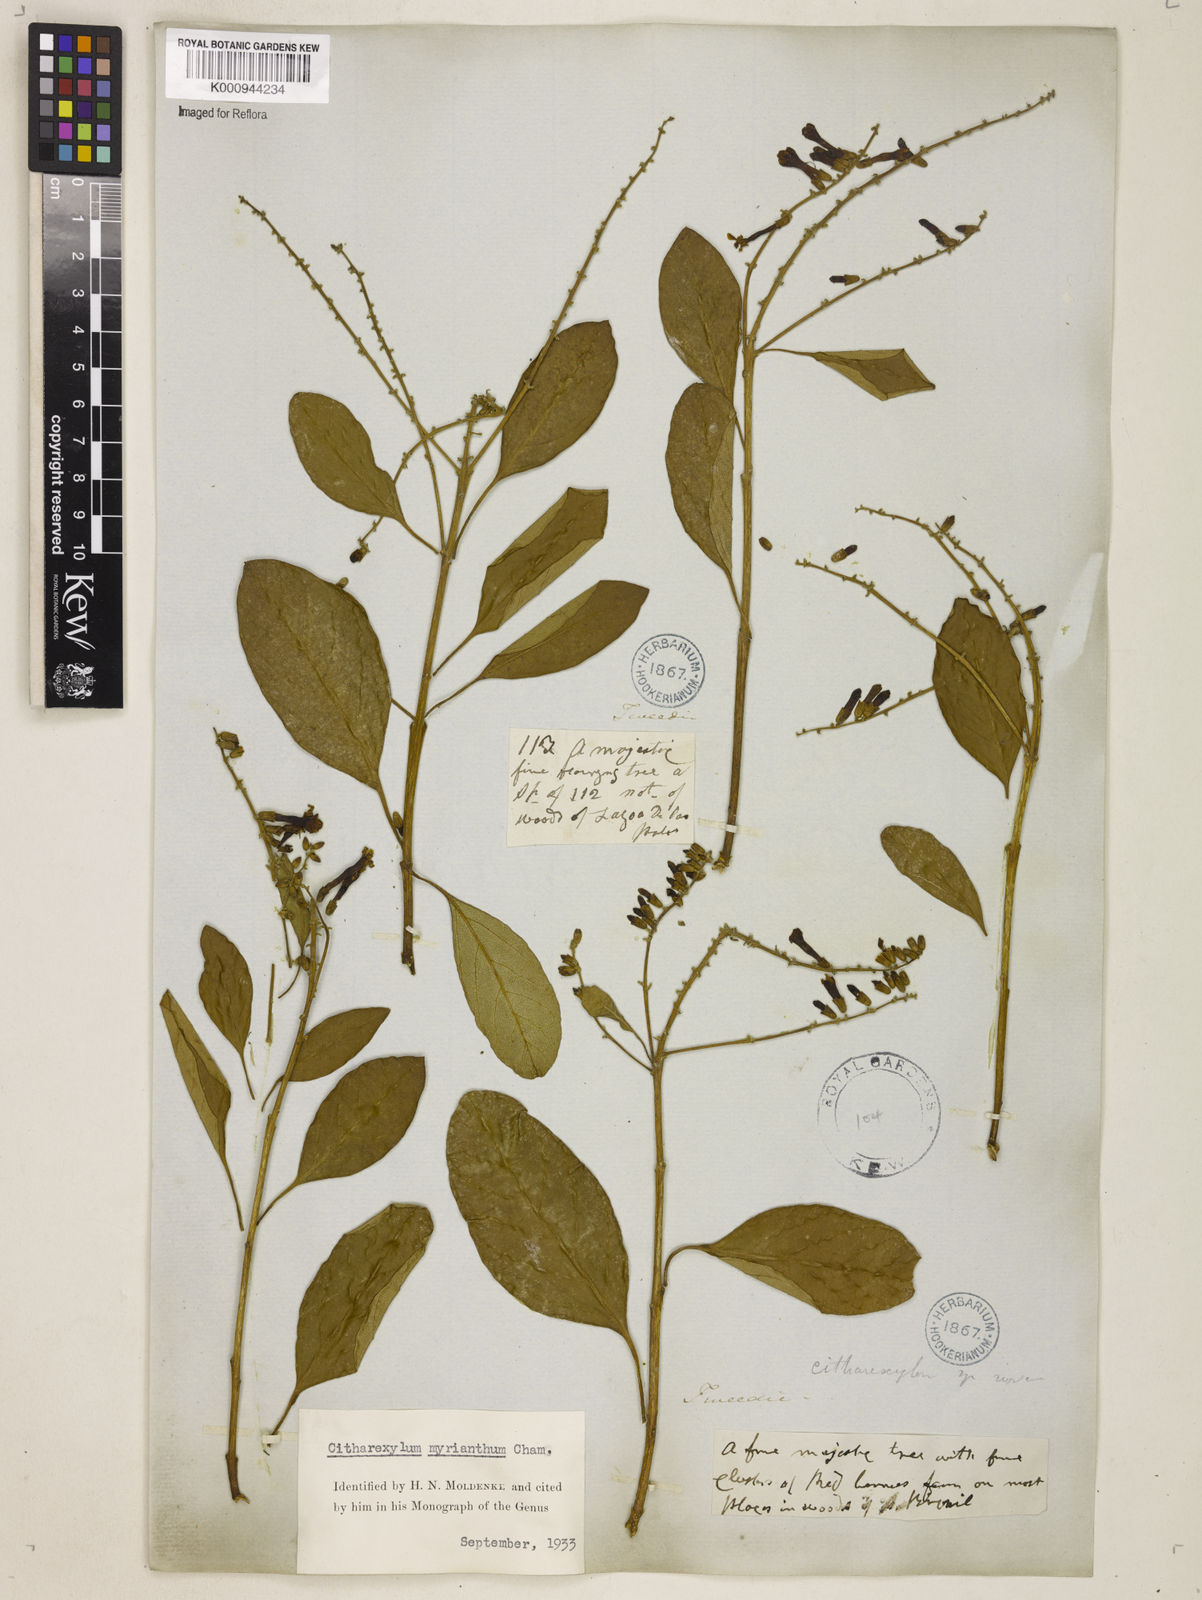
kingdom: Plantae
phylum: Tracheophyta
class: Magnoliopsida
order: Lamiales
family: Verbenaceae
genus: Citharexylum
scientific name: Citharexylum myrianthum
